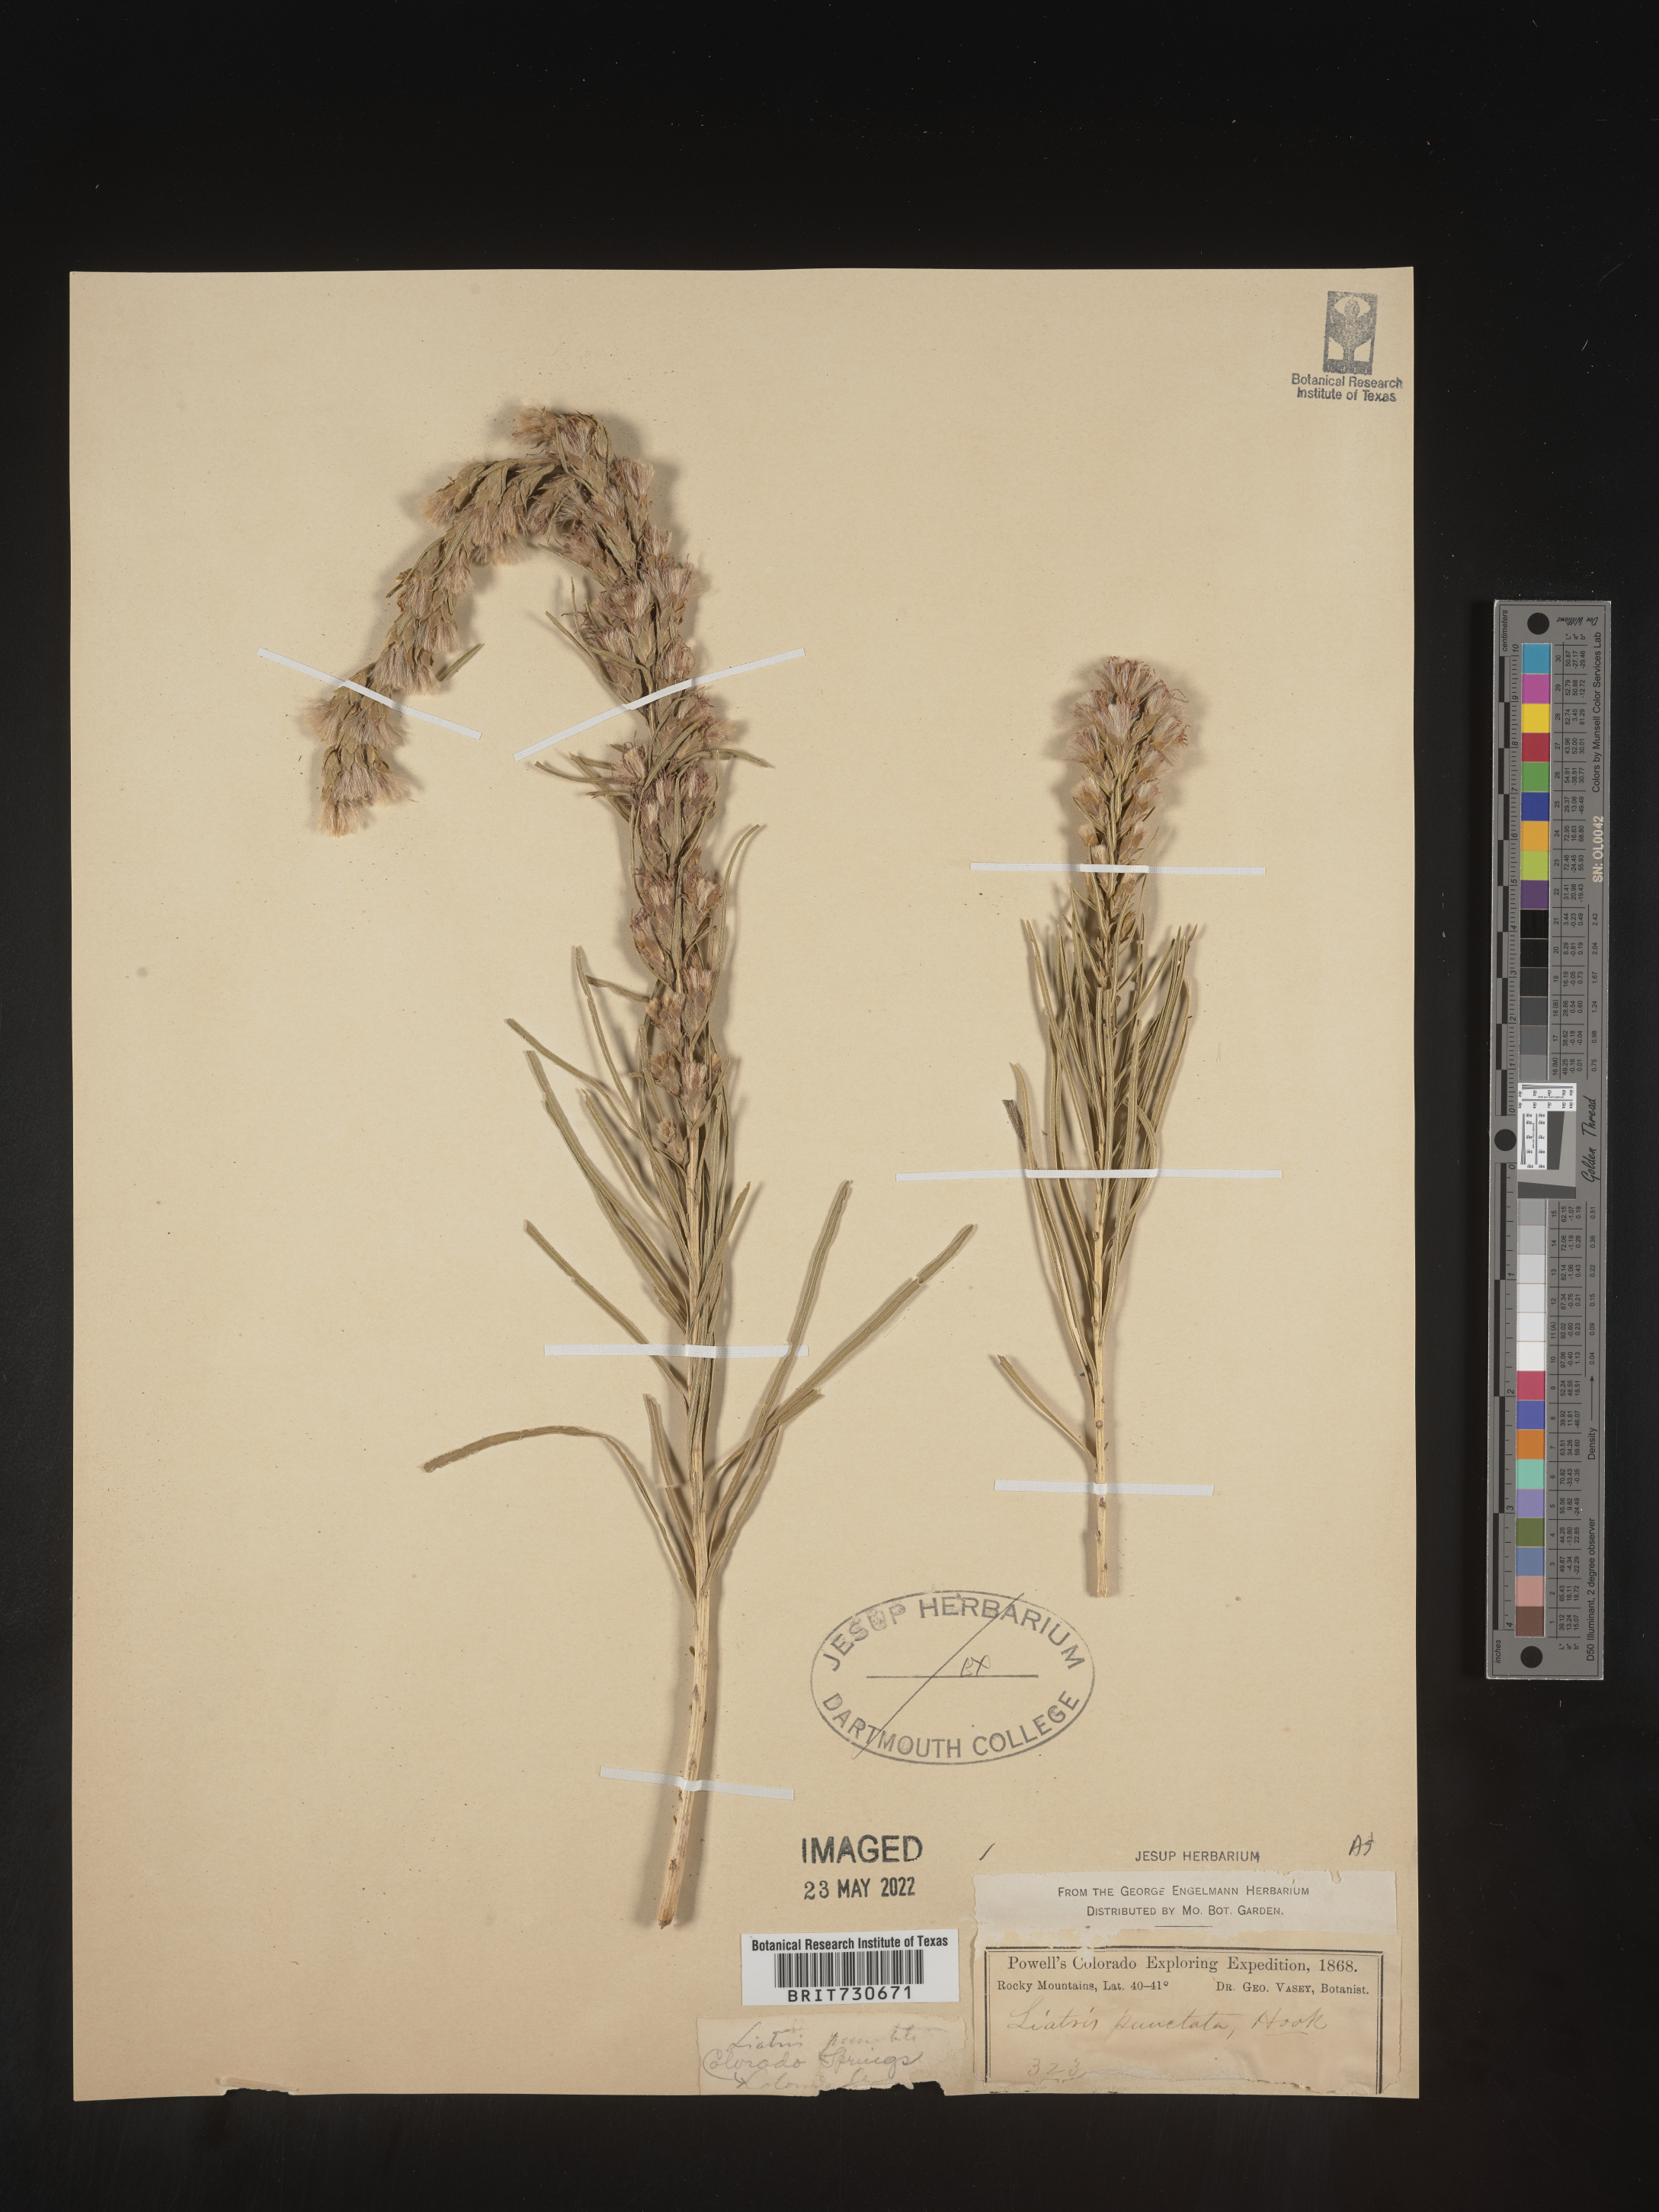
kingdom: Plantae
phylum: Tracheophyta
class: Magnoliopsida
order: Asterales
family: Asteraceae
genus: Liatris
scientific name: Liatris punctata
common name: Dotted gayfeather
